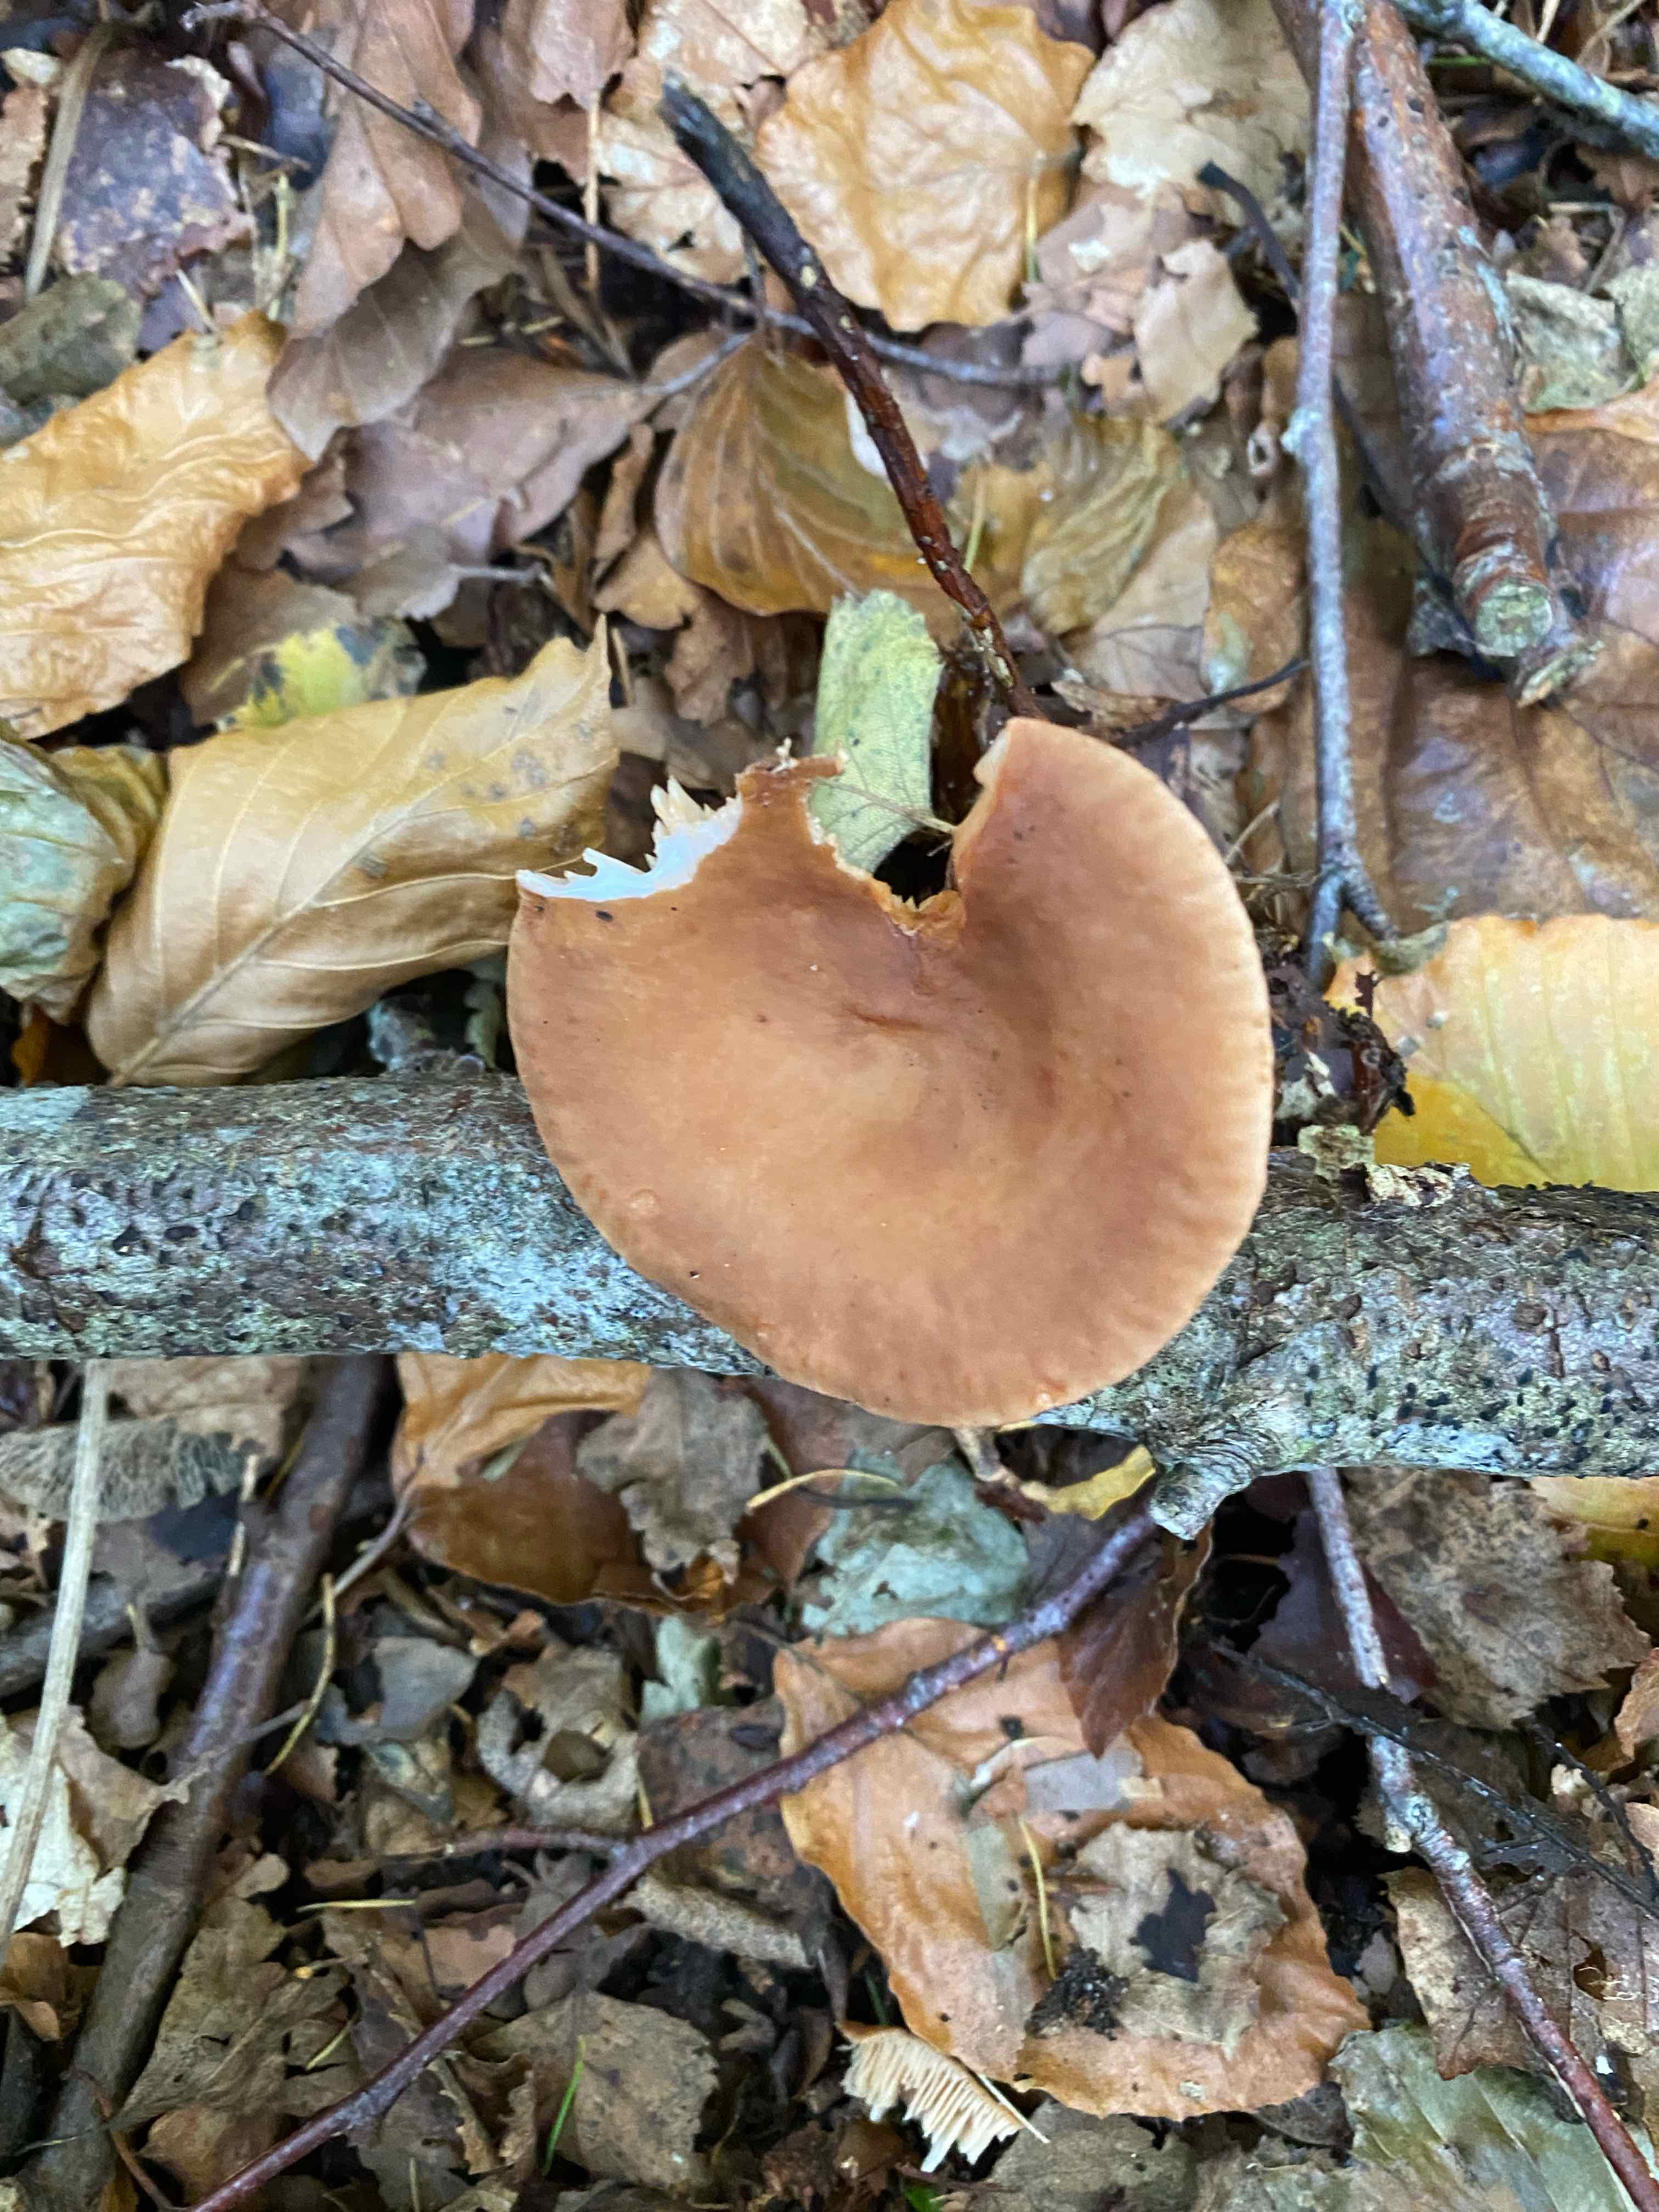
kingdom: Fungi
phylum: Basidiomycota
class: Agaricomycetes
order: Russulales
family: Russulaceae
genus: Lactarius
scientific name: Lactarius subdulcis
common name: sødlig mælkehat
